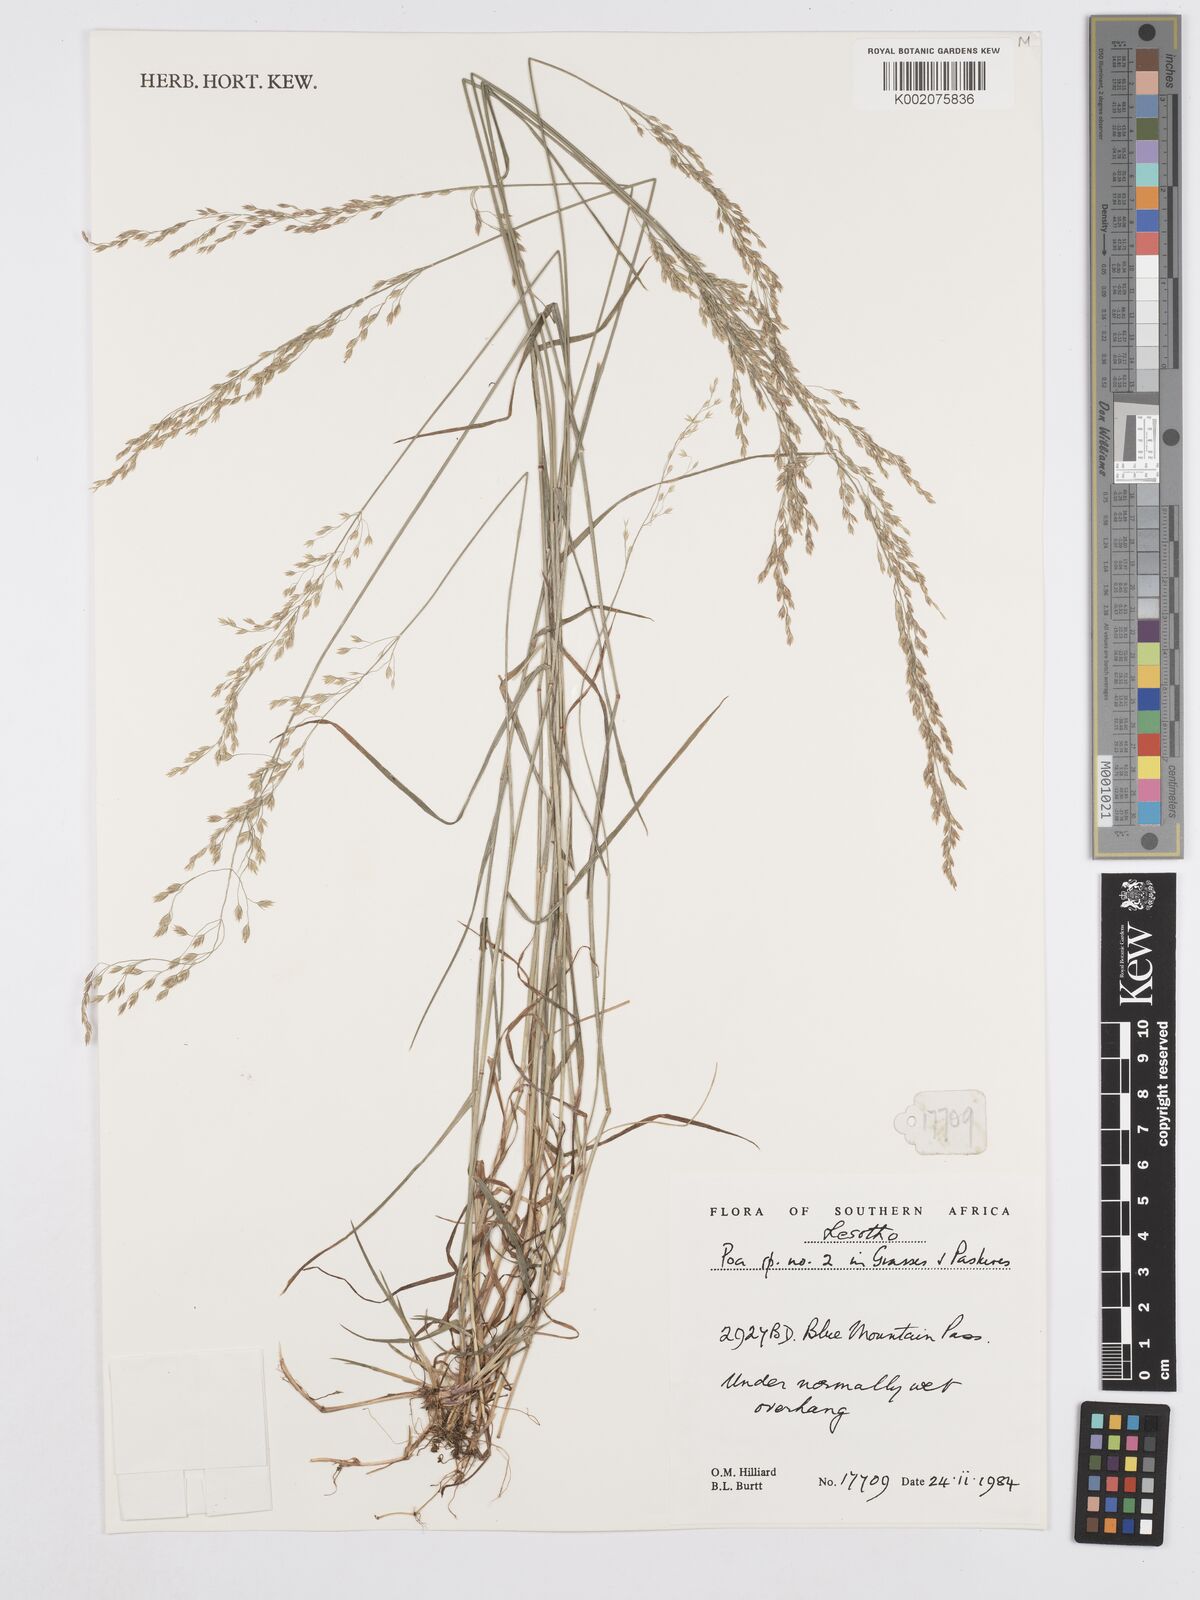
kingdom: Plantae
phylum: Tracheophyta
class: Liliopsida
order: Poales
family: Poaceae
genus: Poa
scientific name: Poa
